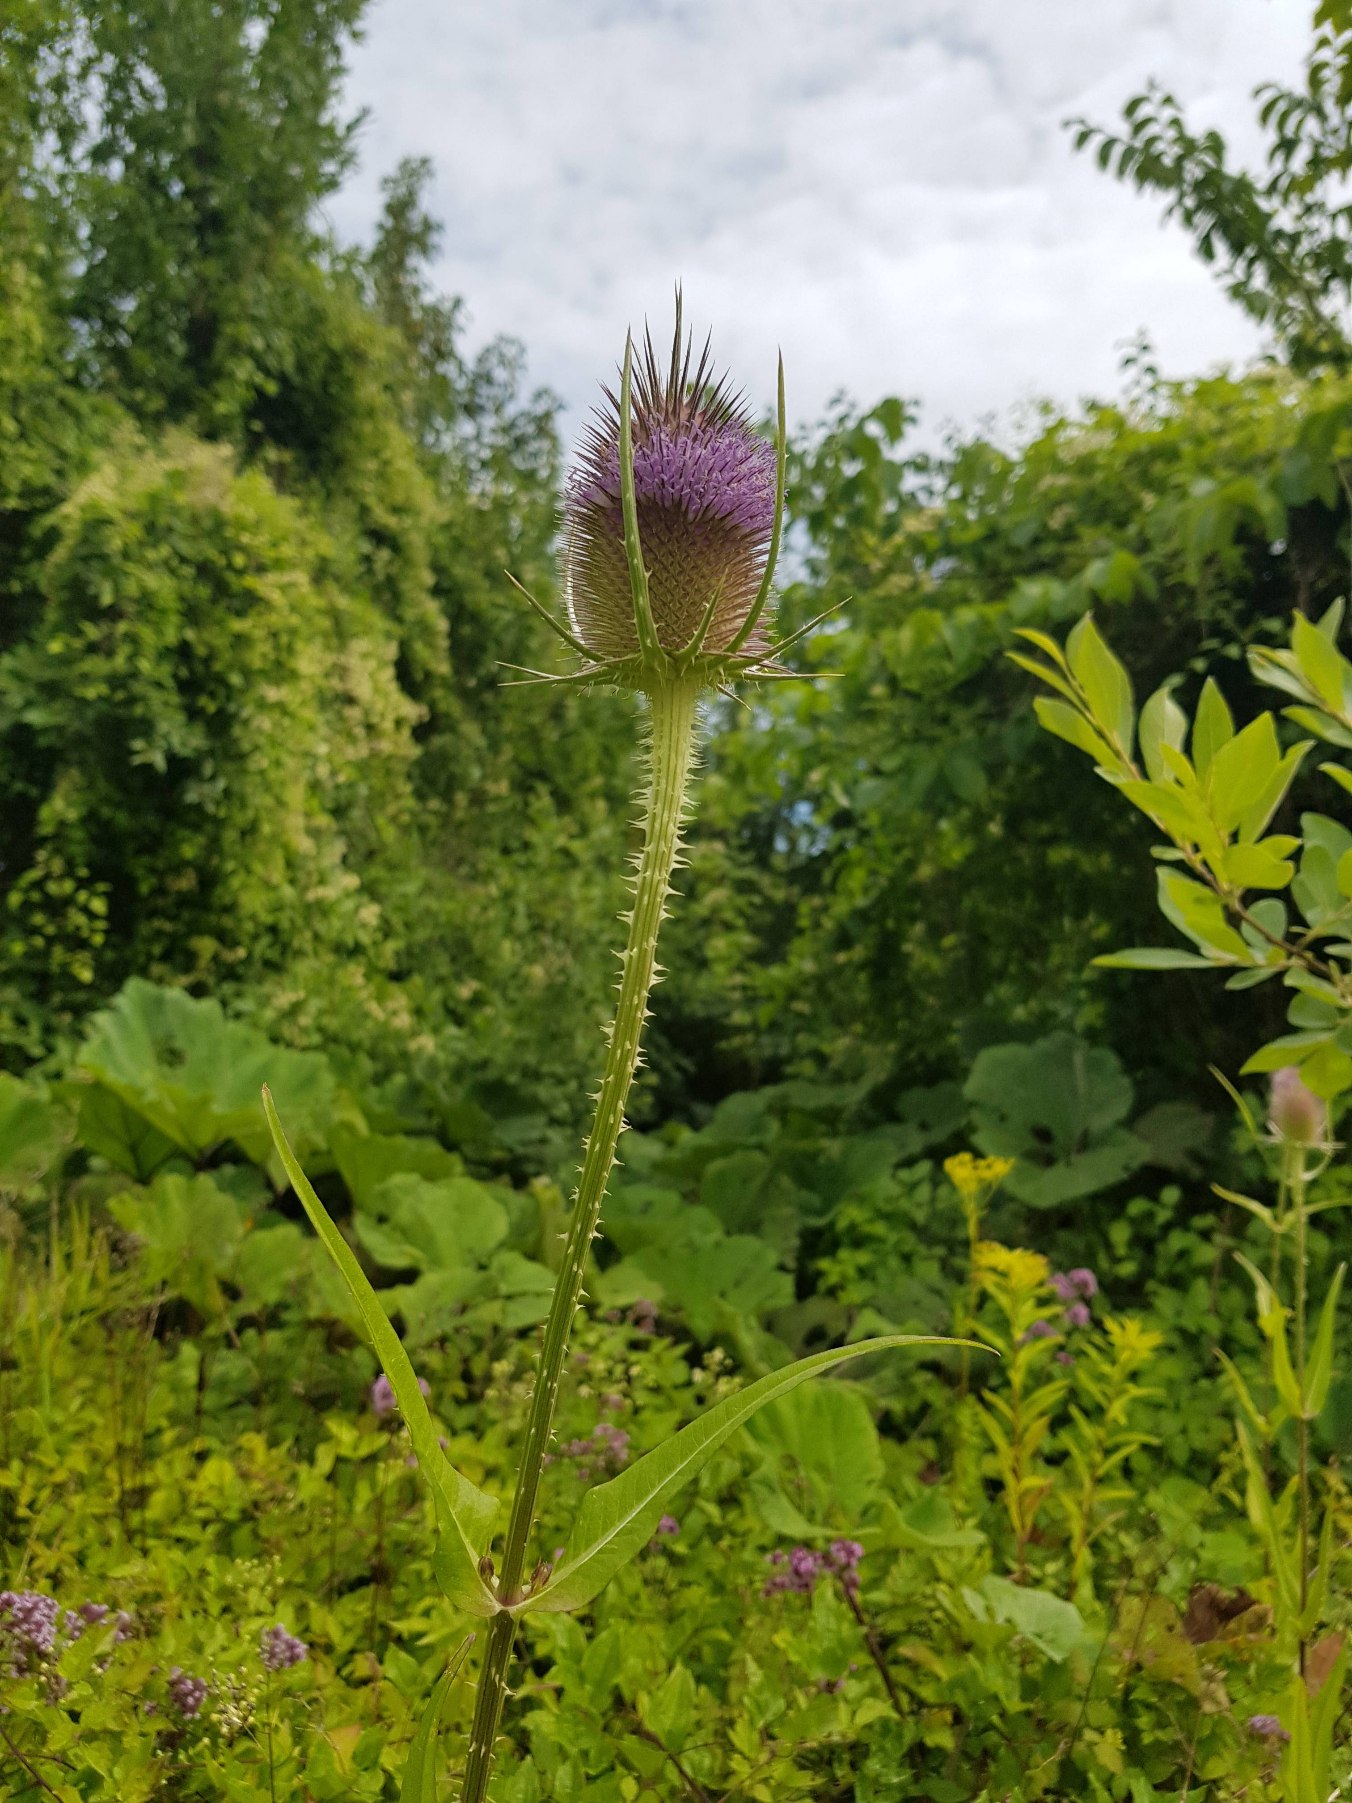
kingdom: Plantae
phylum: Tracheophyta
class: Magnoliopsida
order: Dipsacales
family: Caprifoliaceae
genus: Dipsacus
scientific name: Dipsacus fullonum
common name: Gærde-kartebolle
